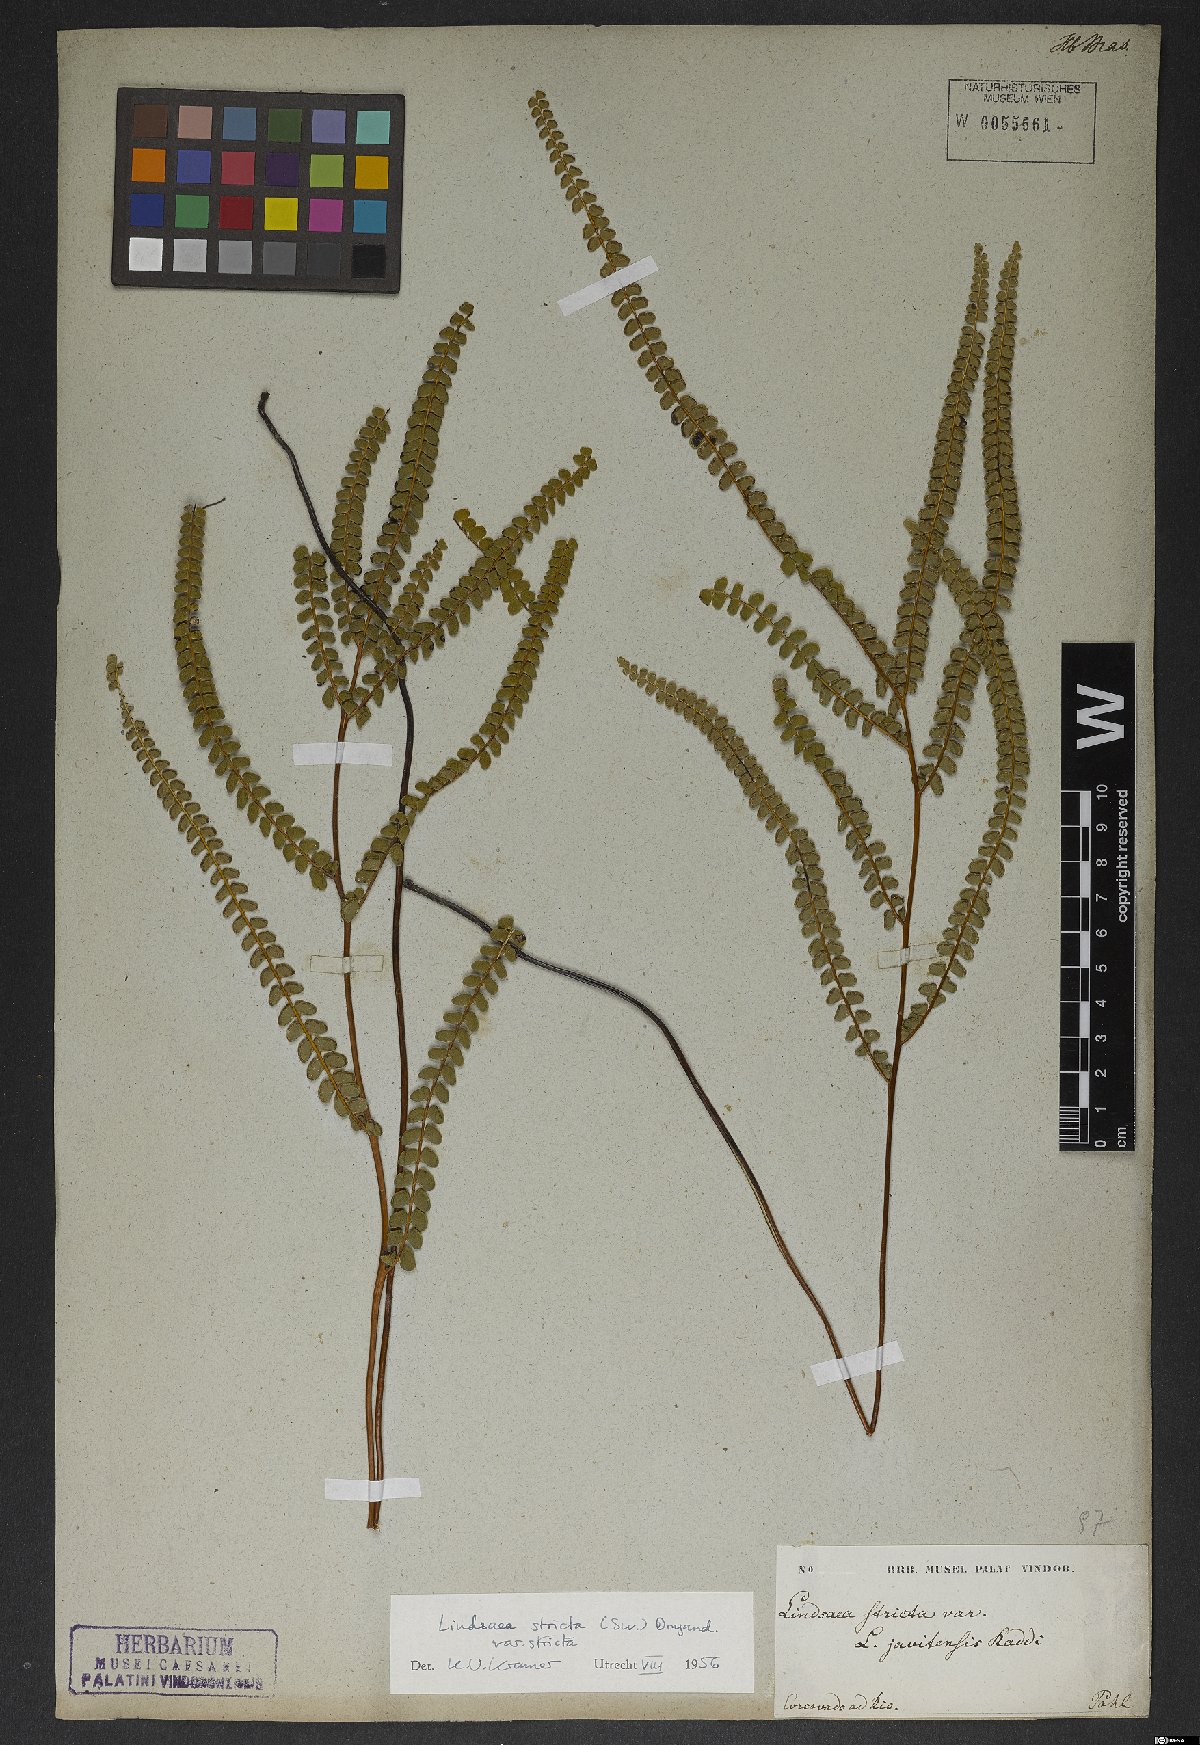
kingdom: Plantae
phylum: Tracheophyta
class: Polypodiopsida
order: Polypodiales
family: Lindsaeaceae
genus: Lindsaea
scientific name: Lindsaea stricta
